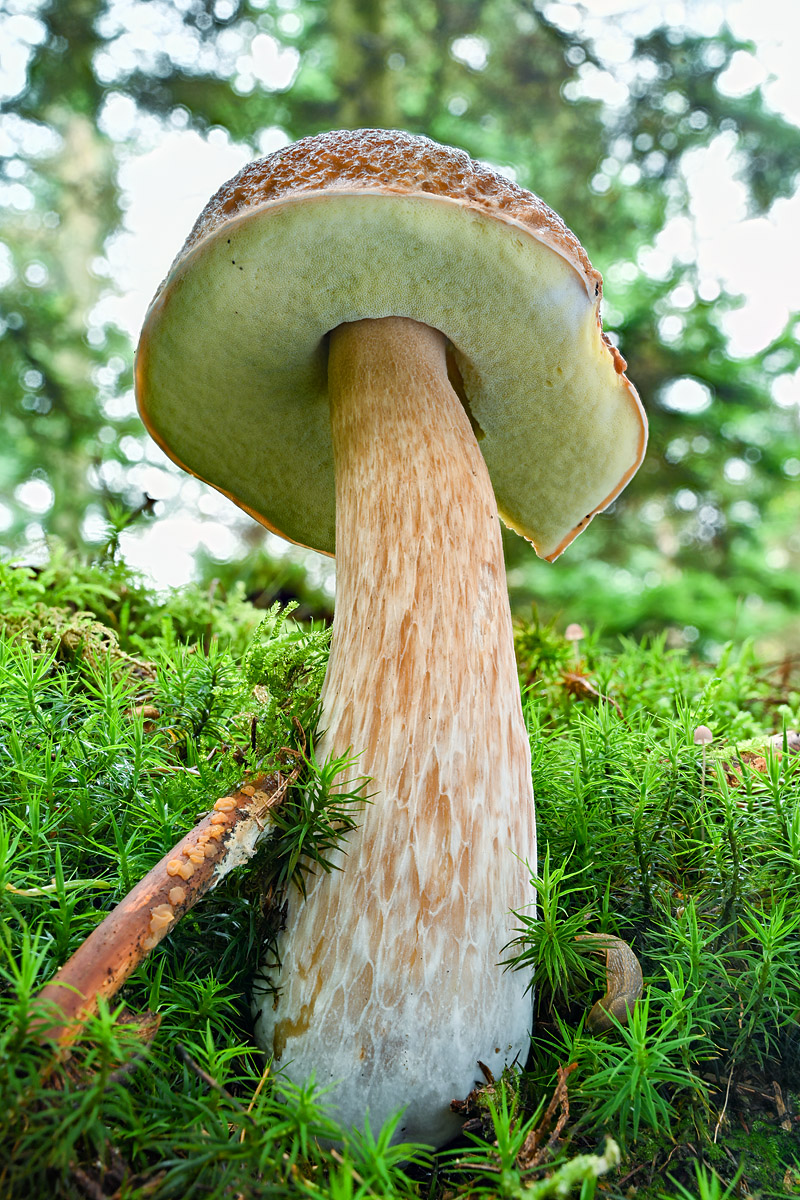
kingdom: Fungi
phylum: Basidiomycota
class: Agaricomycetes
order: Boletales
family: Boletaceae
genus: Boletus
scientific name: Boletus edulis
